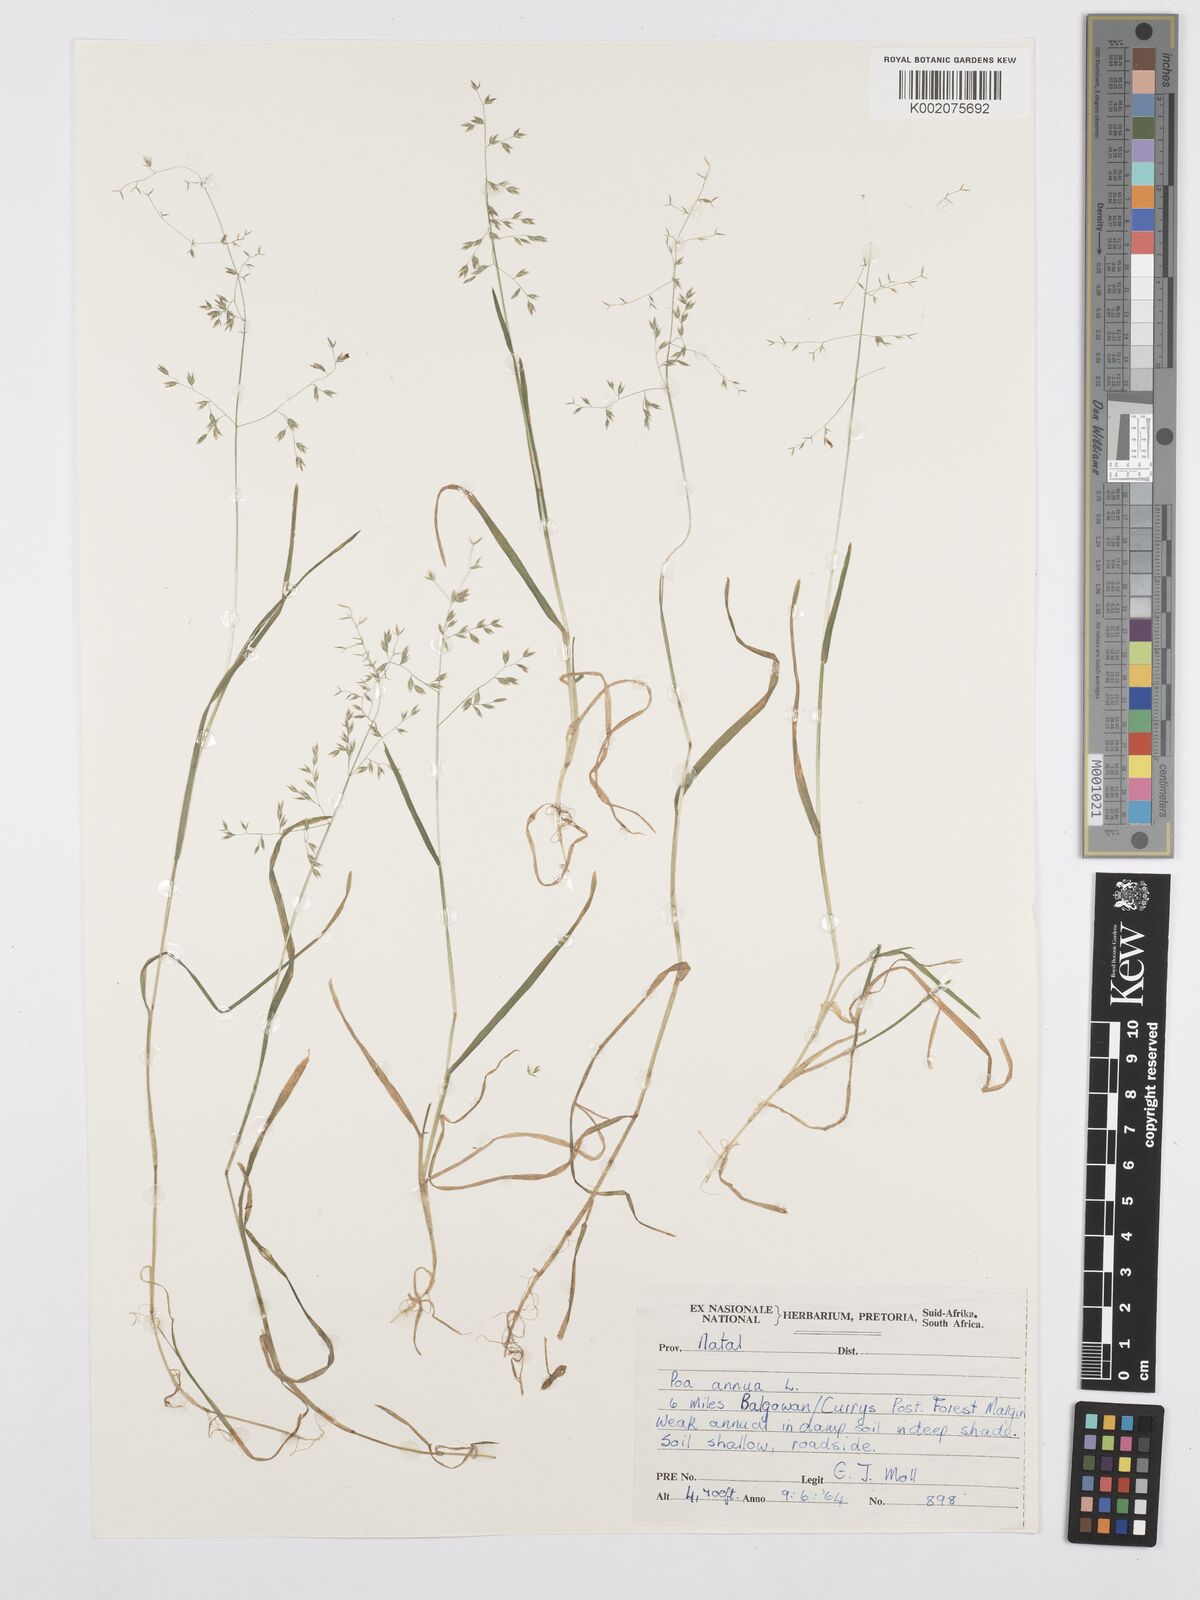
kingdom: Plantae
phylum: Tracheophyta
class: Liliopsida
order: Poales
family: Poaceae
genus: Poa
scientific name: Poa annua
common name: Annual bluegrass
